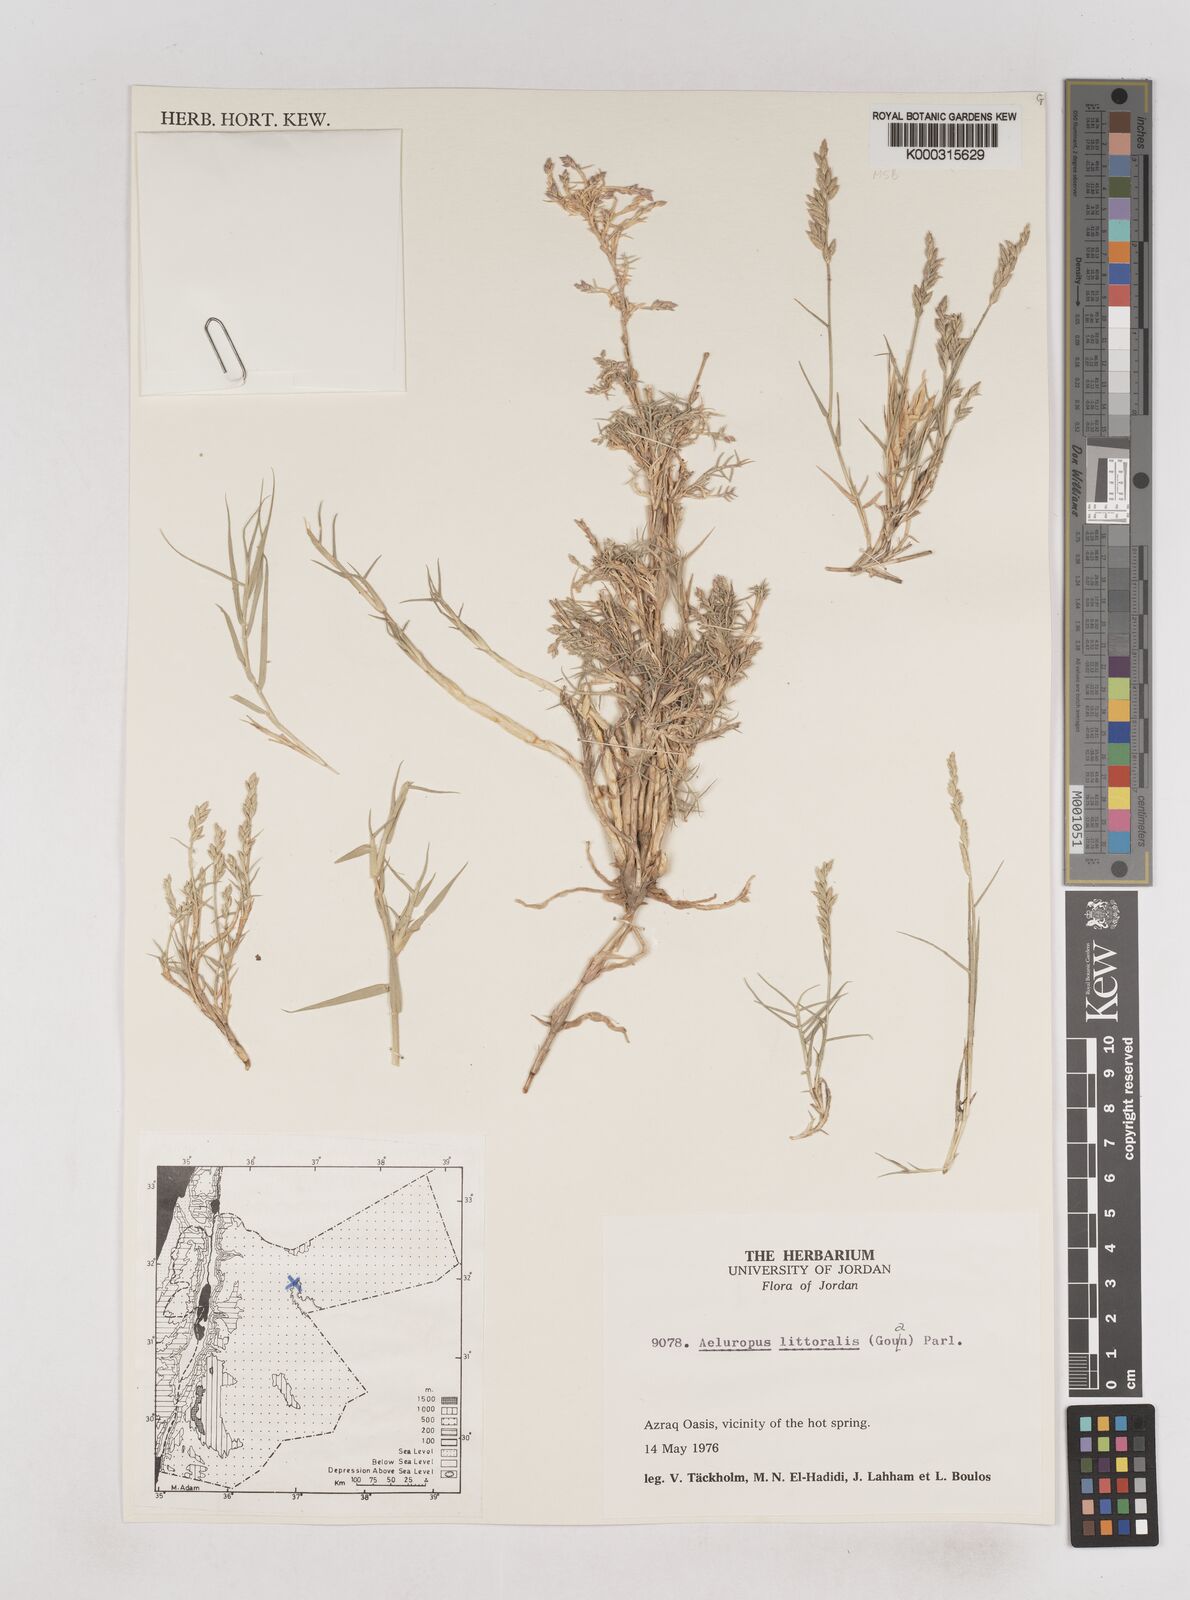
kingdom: Plantae
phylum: Tracheophyta
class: Liliopsida
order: Poales
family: Poaceae
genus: Aeluropus
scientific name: Aeluropus littoralis
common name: Indian walnut
